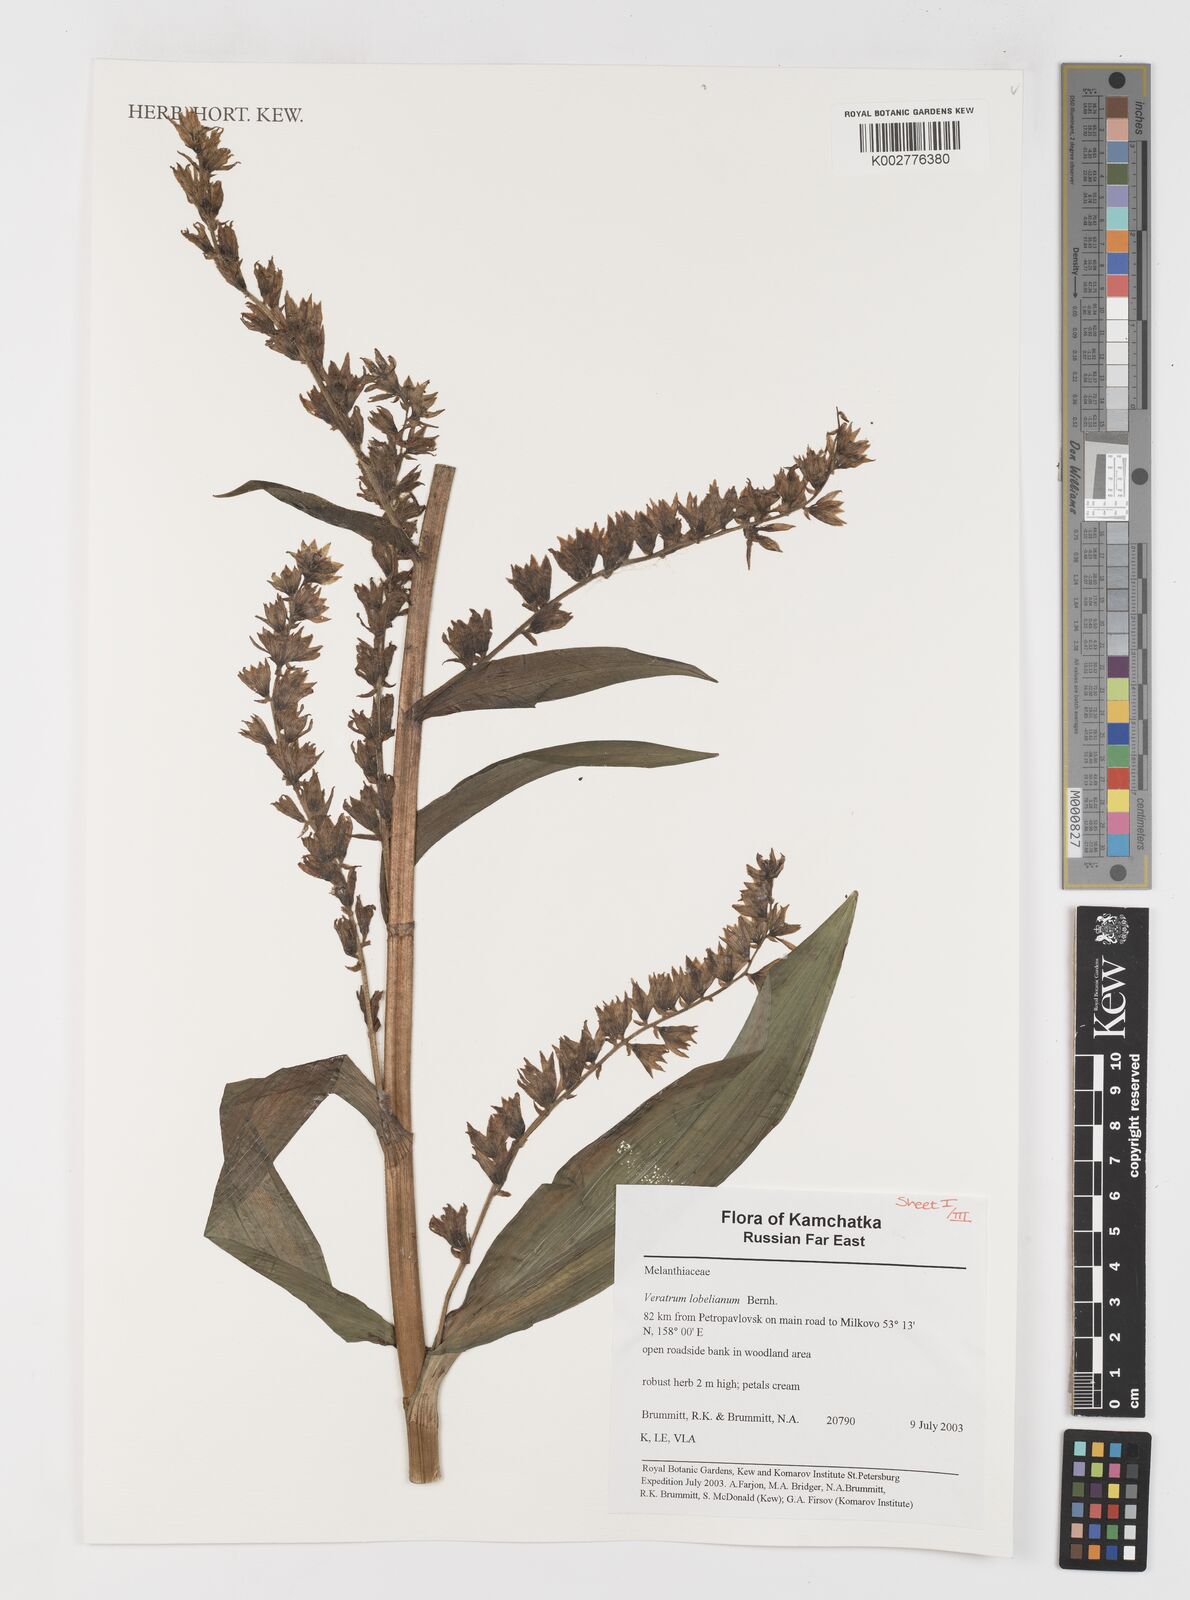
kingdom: Plantae
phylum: Tracheophyta
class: Liliopsida
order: Liliales
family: Melanthiaceae
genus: Veratrum
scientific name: Veratrum lobelianum
